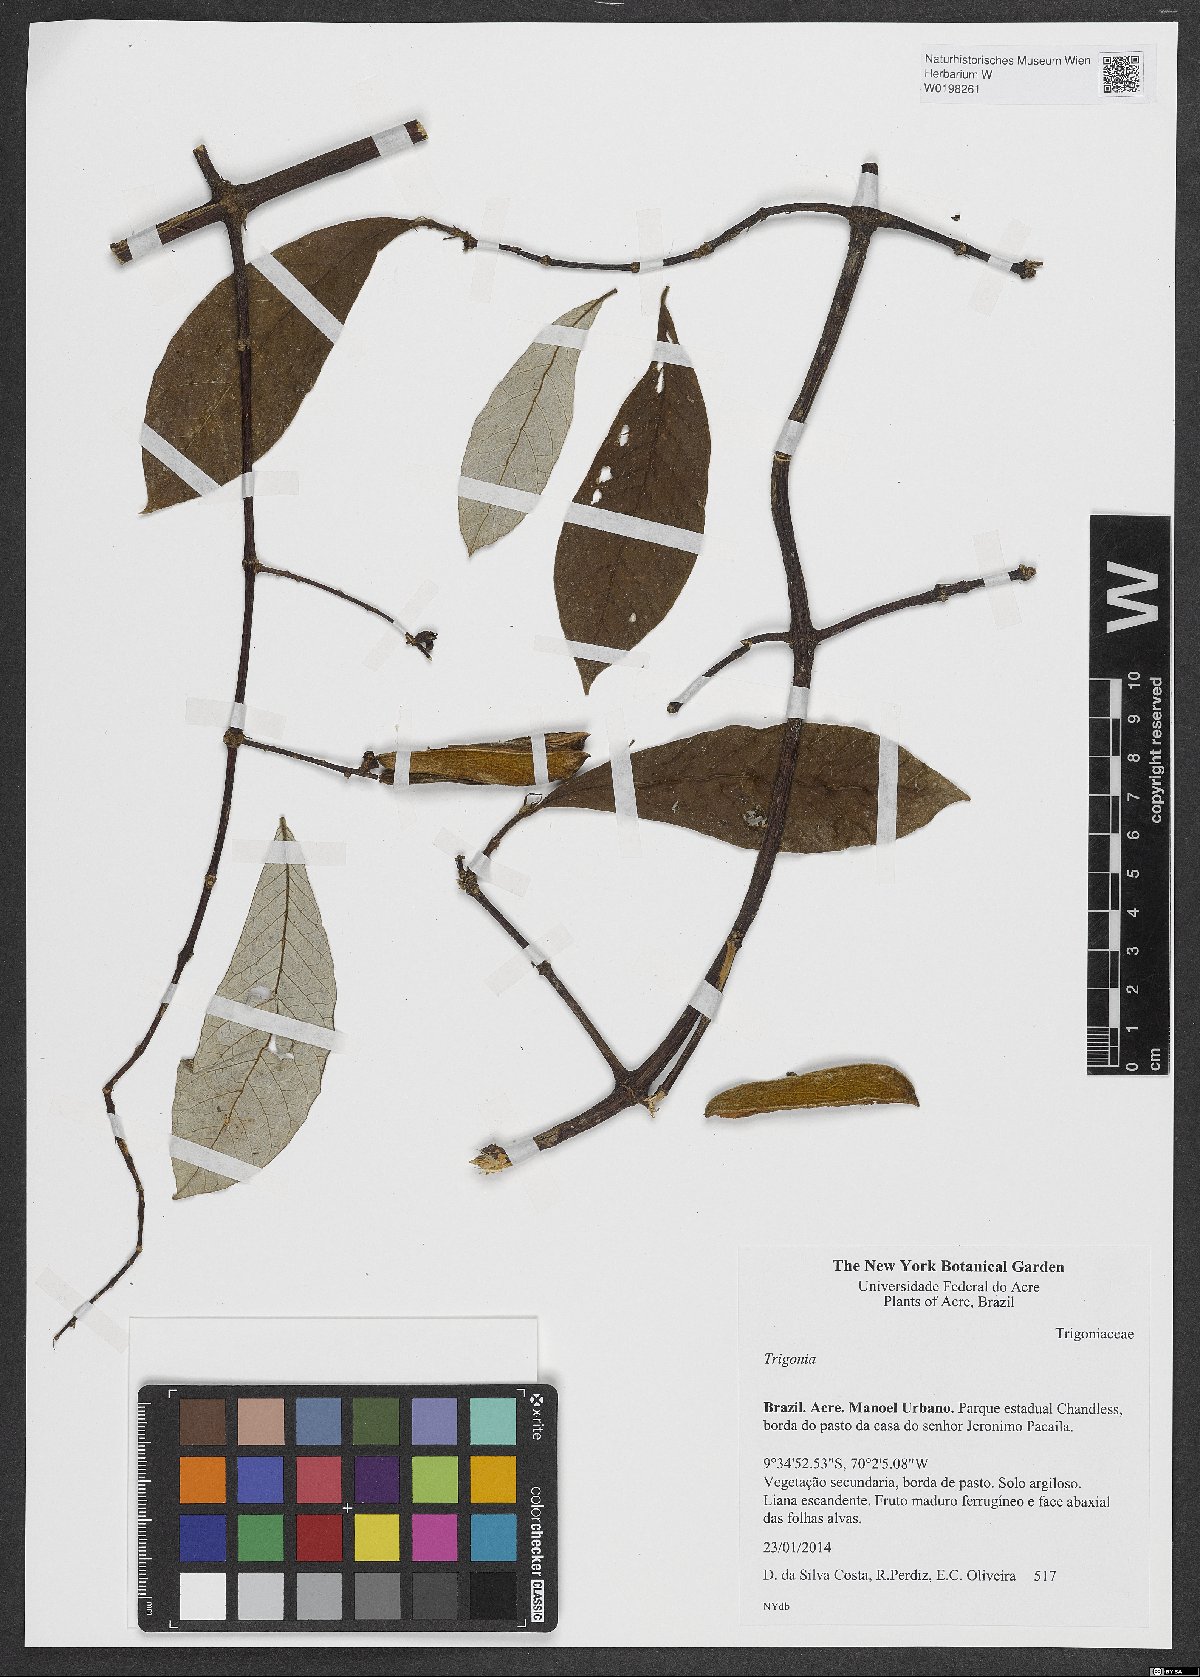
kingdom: Plantae
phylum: Tracheophyta
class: Magnoliopsida
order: Malpighiales
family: Trigoniaceae
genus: Trigonia
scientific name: Trigonia
